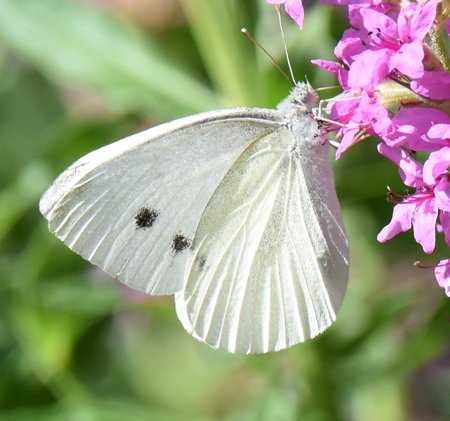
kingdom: Animalia
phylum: Arthropoda
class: Insecta
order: Lepidoptera
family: Pieridae
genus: Pieris
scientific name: Pieris rapae
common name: Cabbage White
